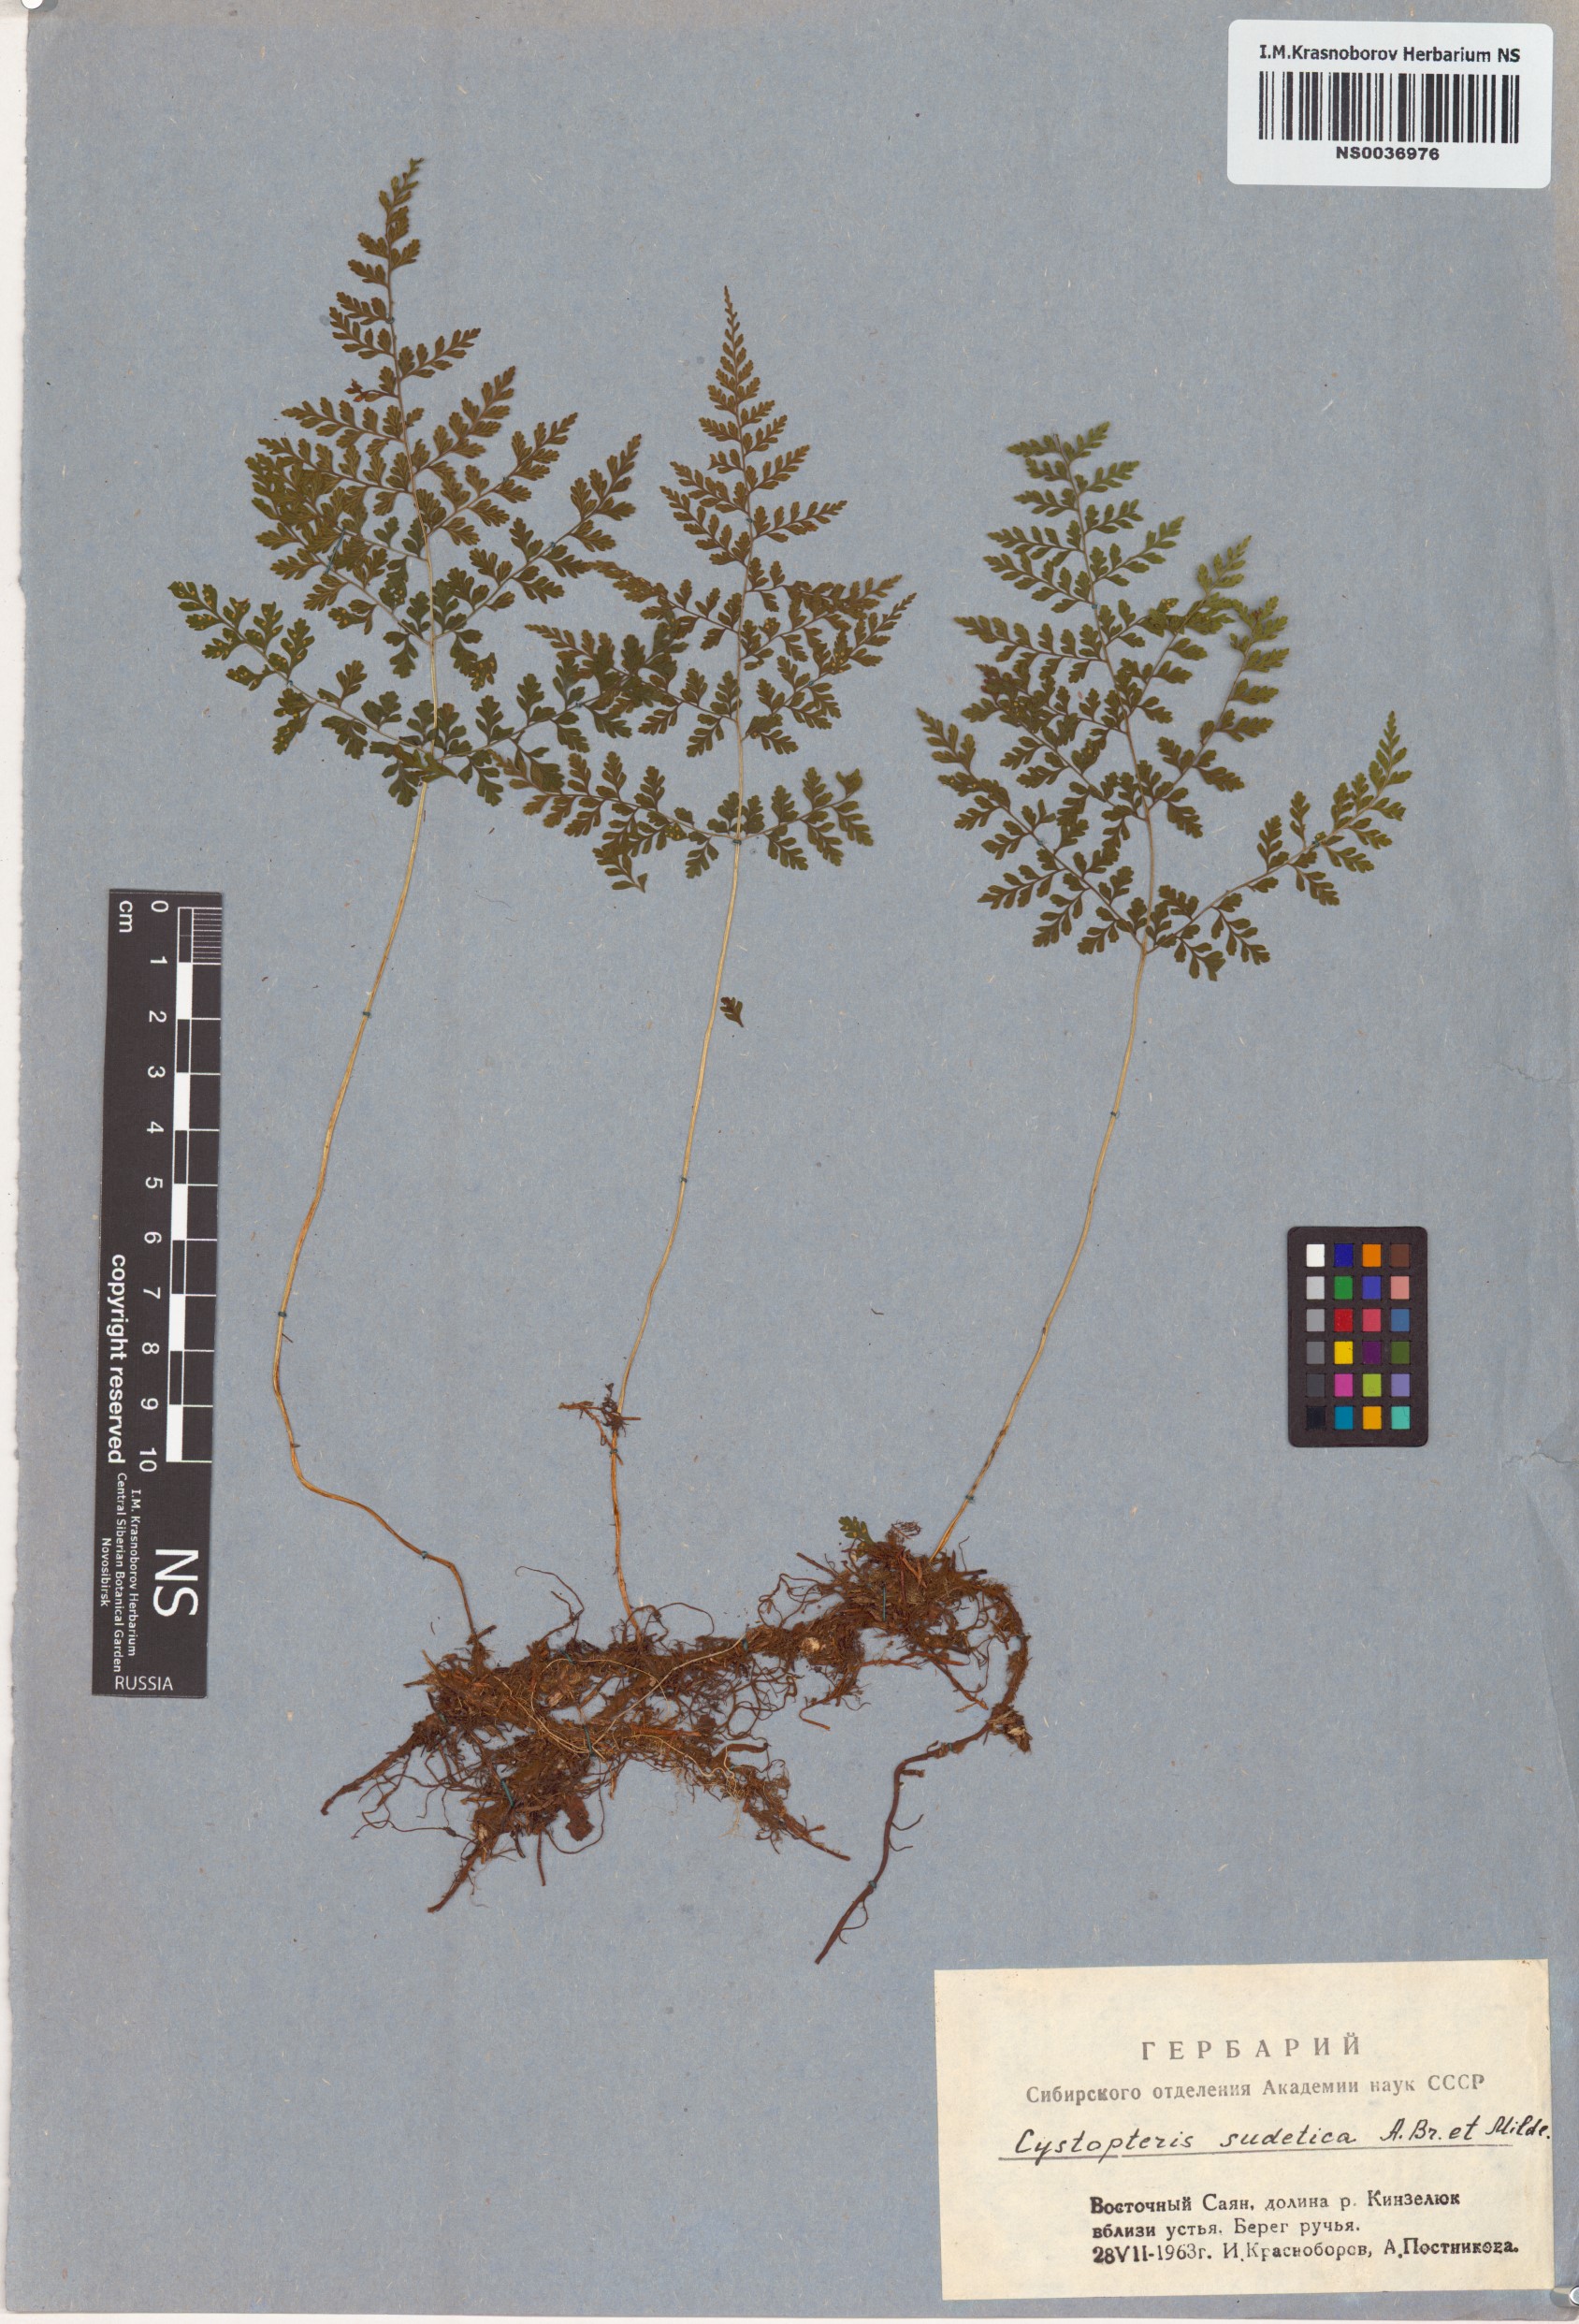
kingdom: Plantae
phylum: Tracheophyta
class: Polypodiopsida
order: Polypodiales
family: Cystopteridaceae
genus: Cystopteris
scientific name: Cystopteris sudetica
